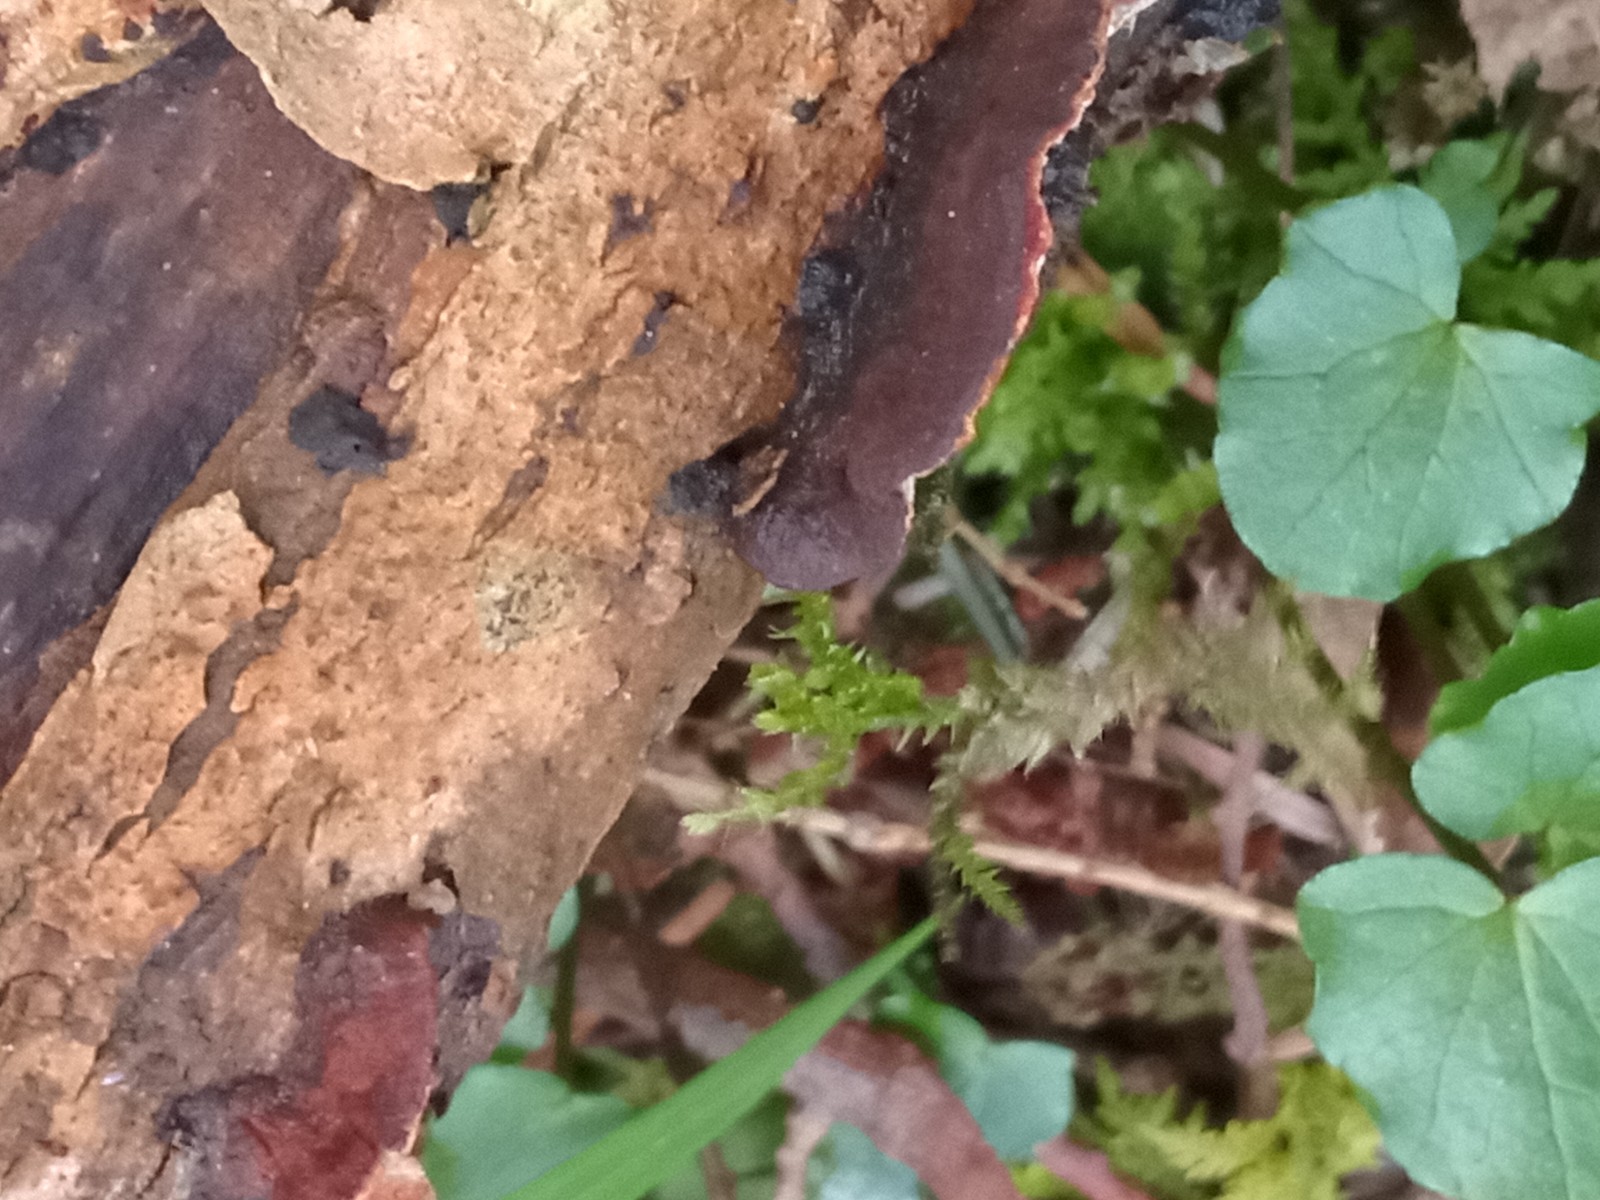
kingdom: Fungi
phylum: Basidiomycota
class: Agaricomycetes
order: Hymenochaetales
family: Hymenochaetaceae
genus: Hydnoporia
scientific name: Hydnoporia tabacina
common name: tobaksbrun ruslædersvamp
